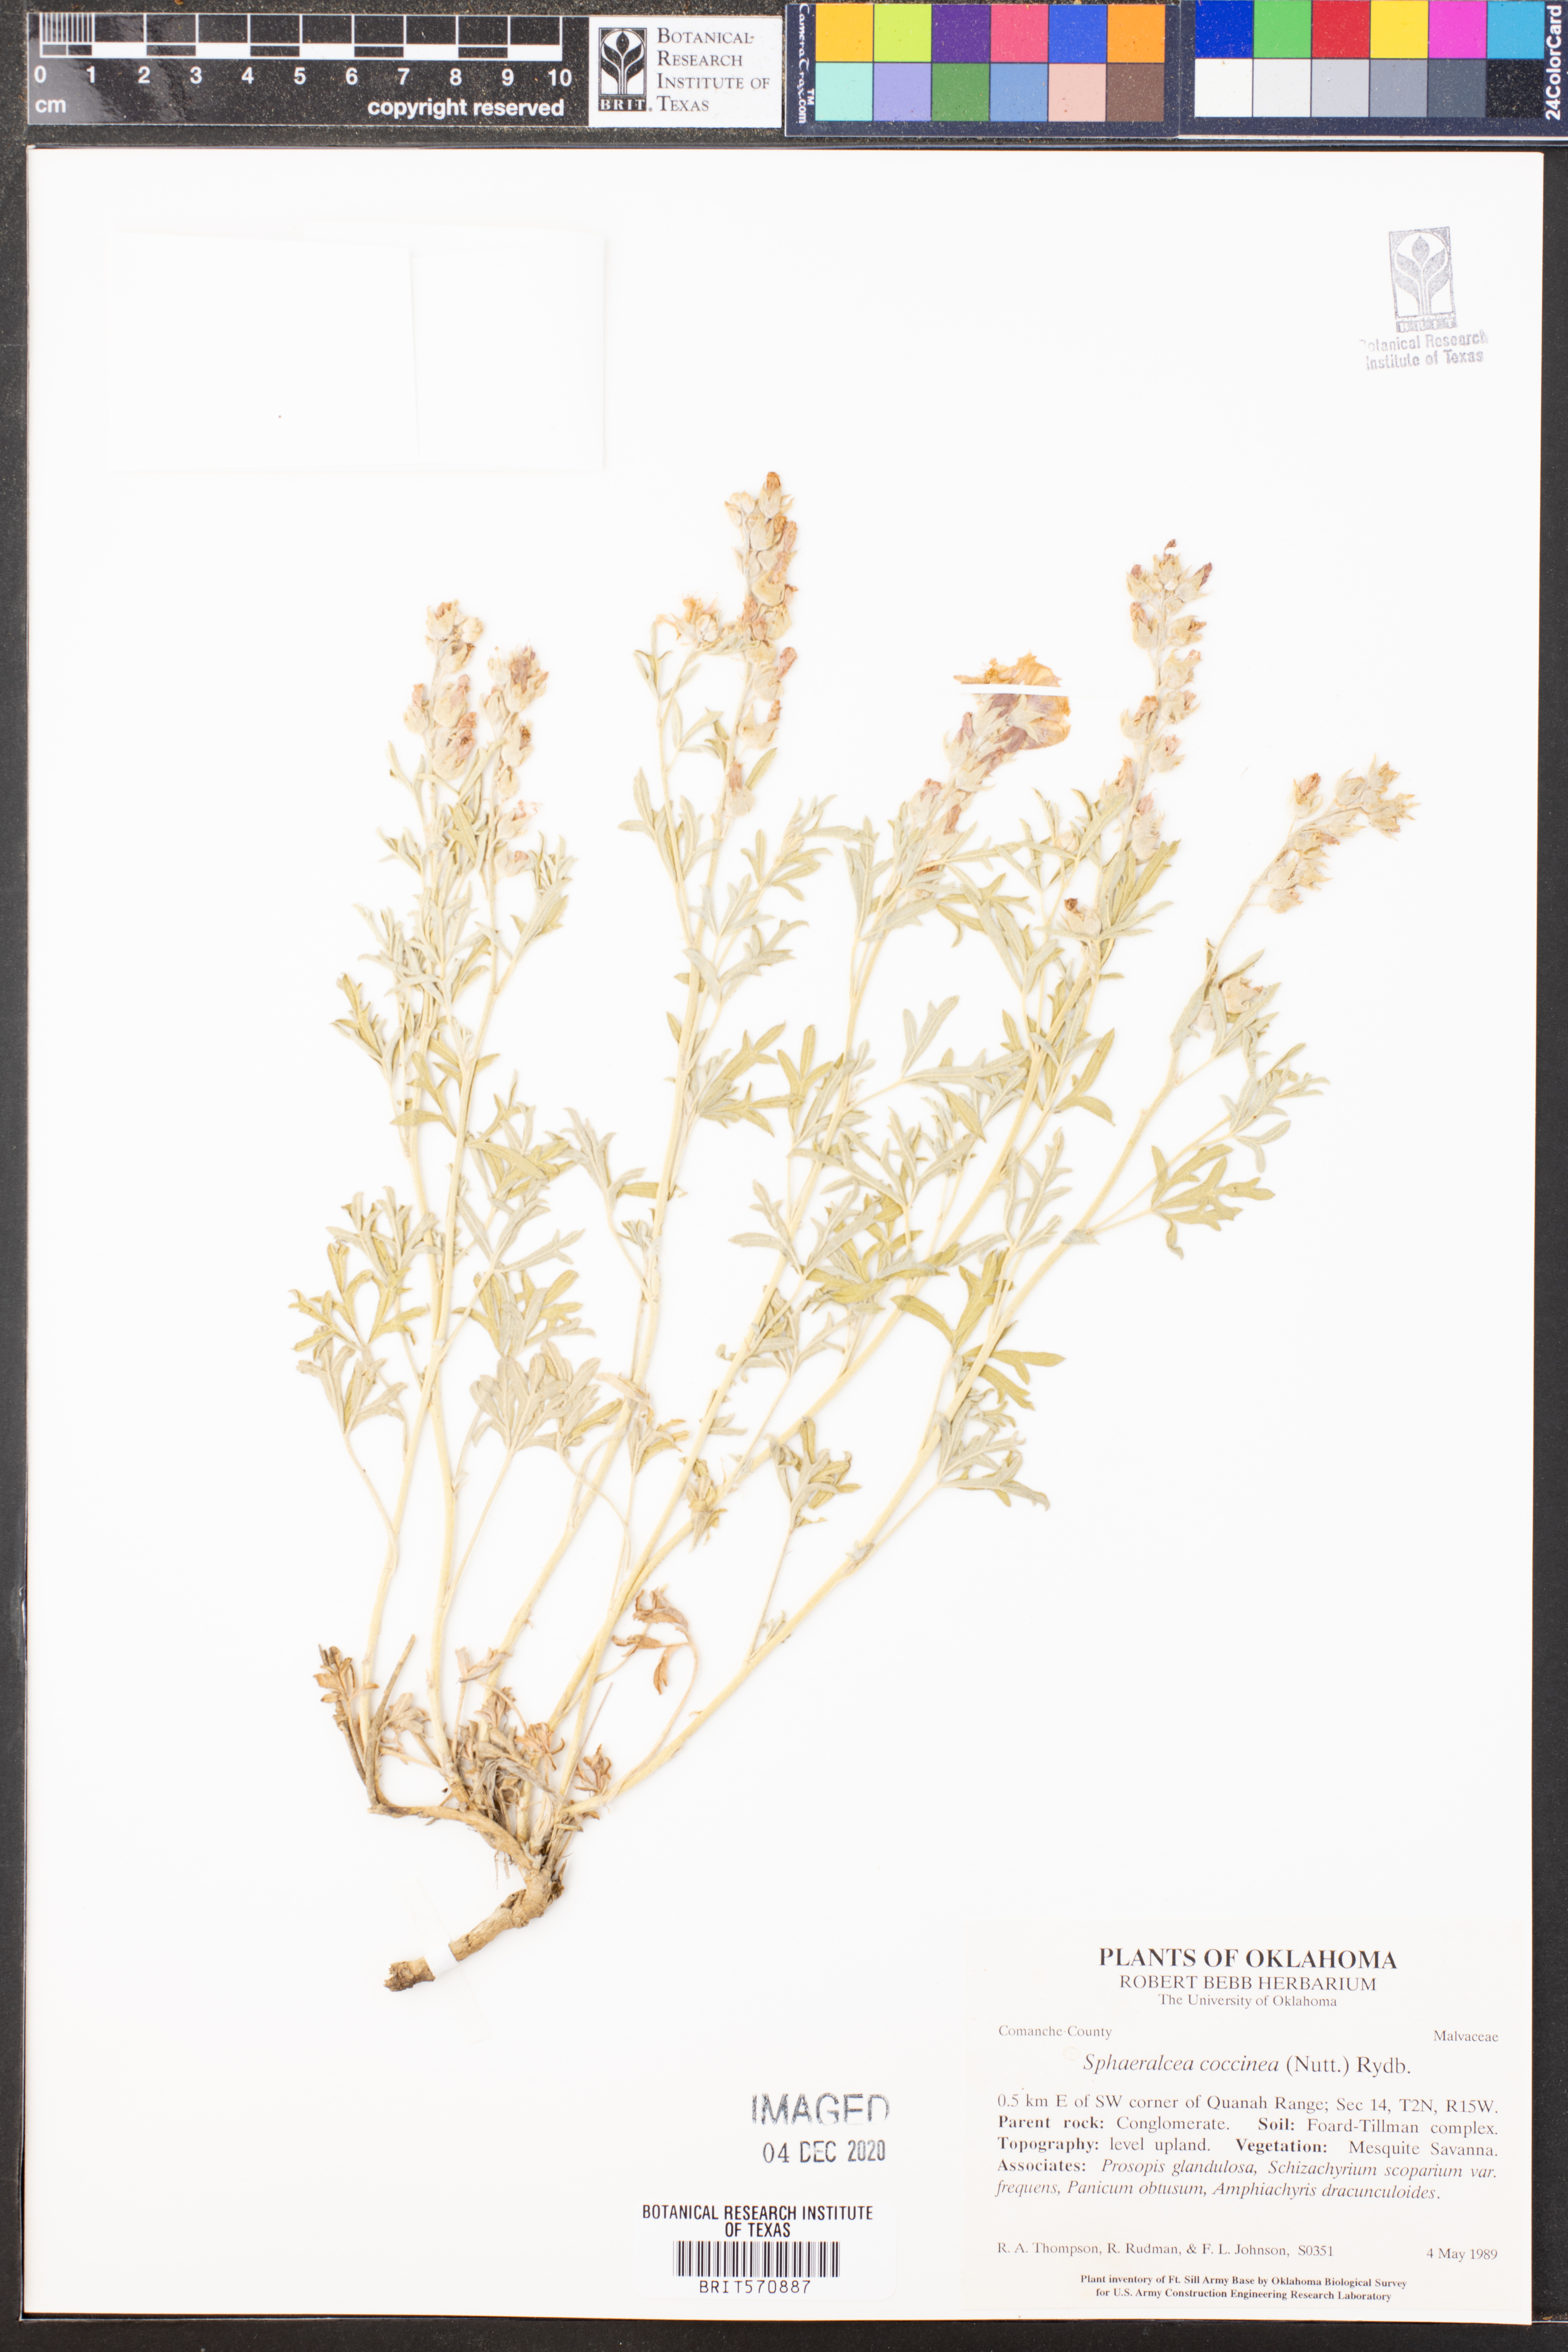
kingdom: Plantae
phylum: Tracheophyta
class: Magnoliopsida
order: Malvales
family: Malvaceae
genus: Sphaeralcea
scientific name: Sphaeralcea coccinea
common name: Moss-rose
